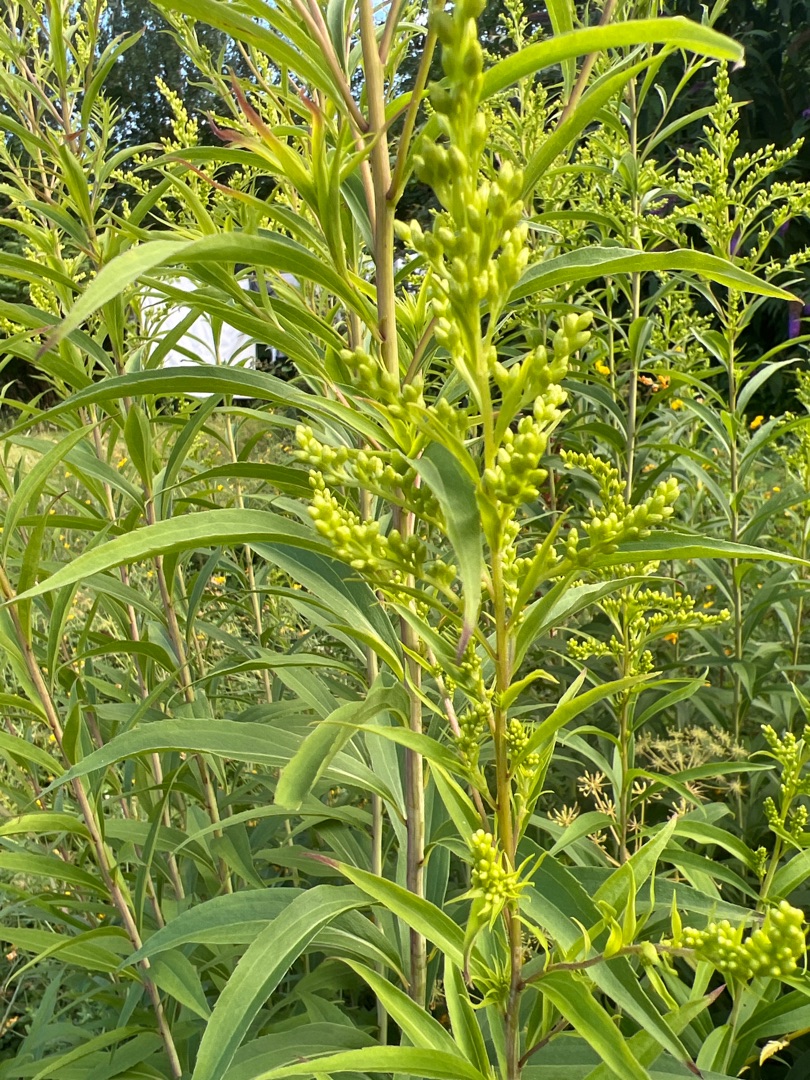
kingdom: Plantae
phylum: Tracheophyta
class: Magnoliopsida
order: Asterales
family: Asteraceae
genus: Solidago
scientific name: Solidago gigantea
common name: Sildig gyldenris
